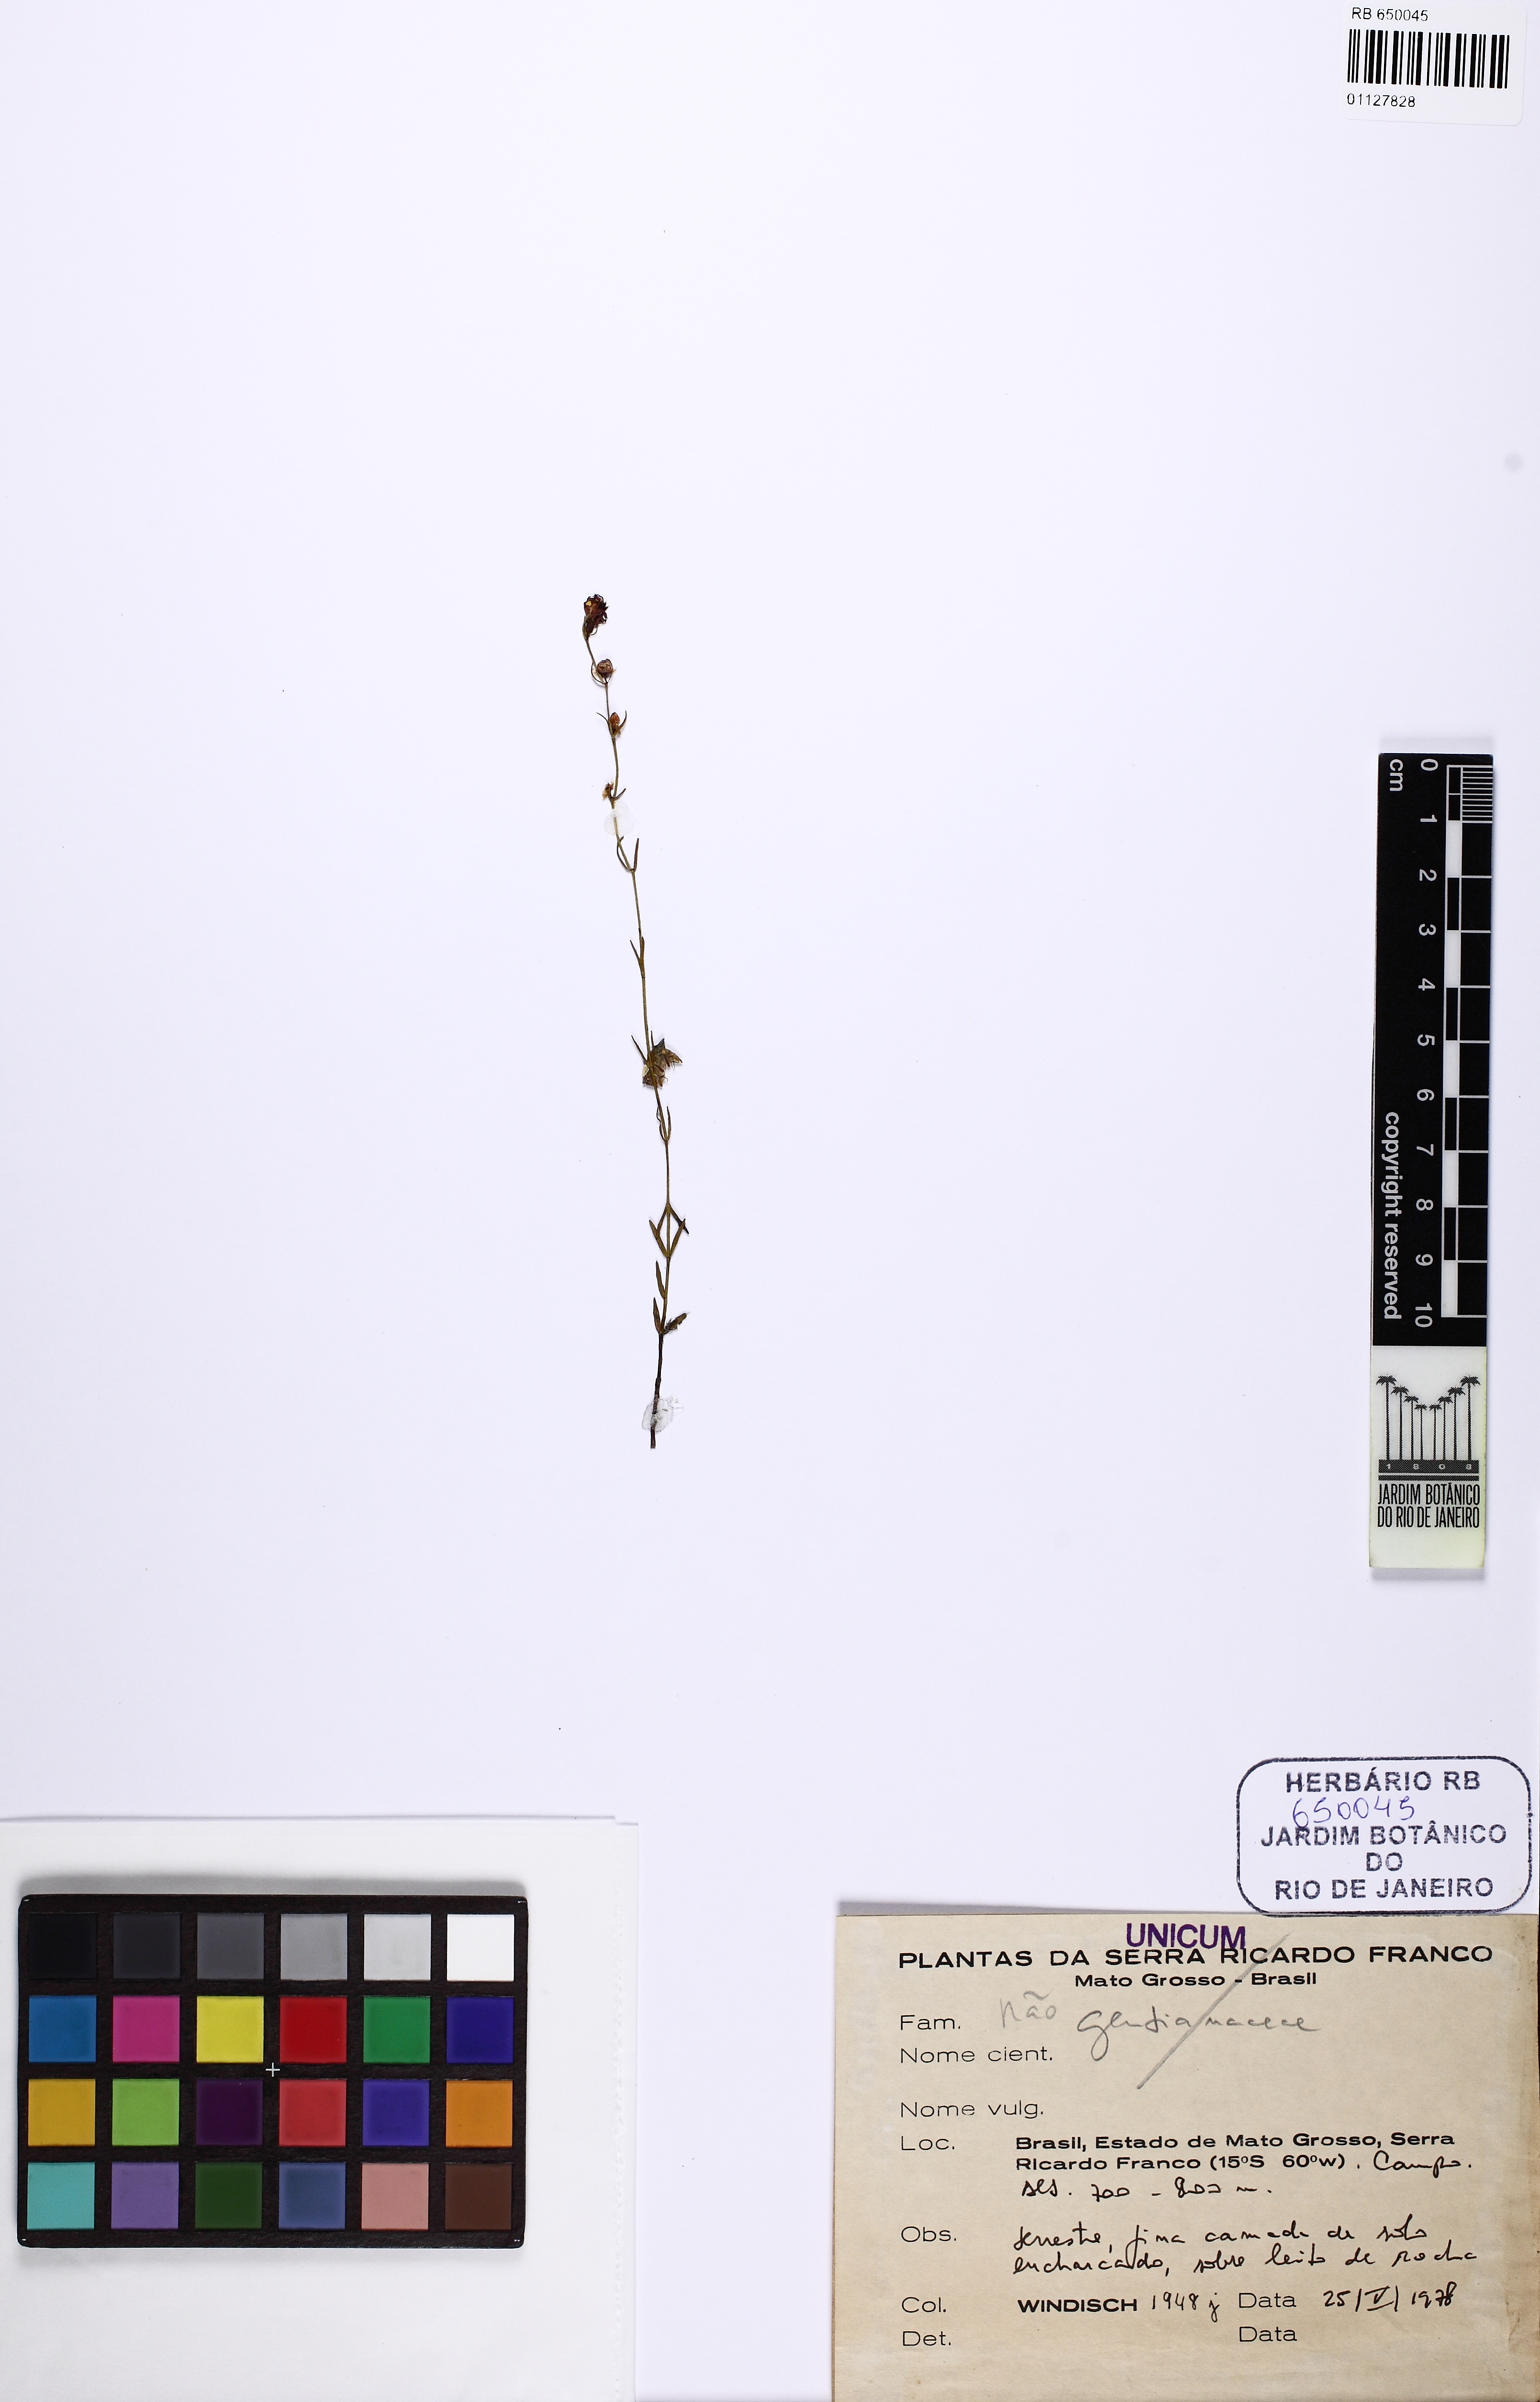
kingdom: Plantae
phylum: Tracheophyta
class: Magnoliopsida
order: Myrtales
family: Melastomataceae
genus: Poteranthera
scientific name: Poteranthera windischii
